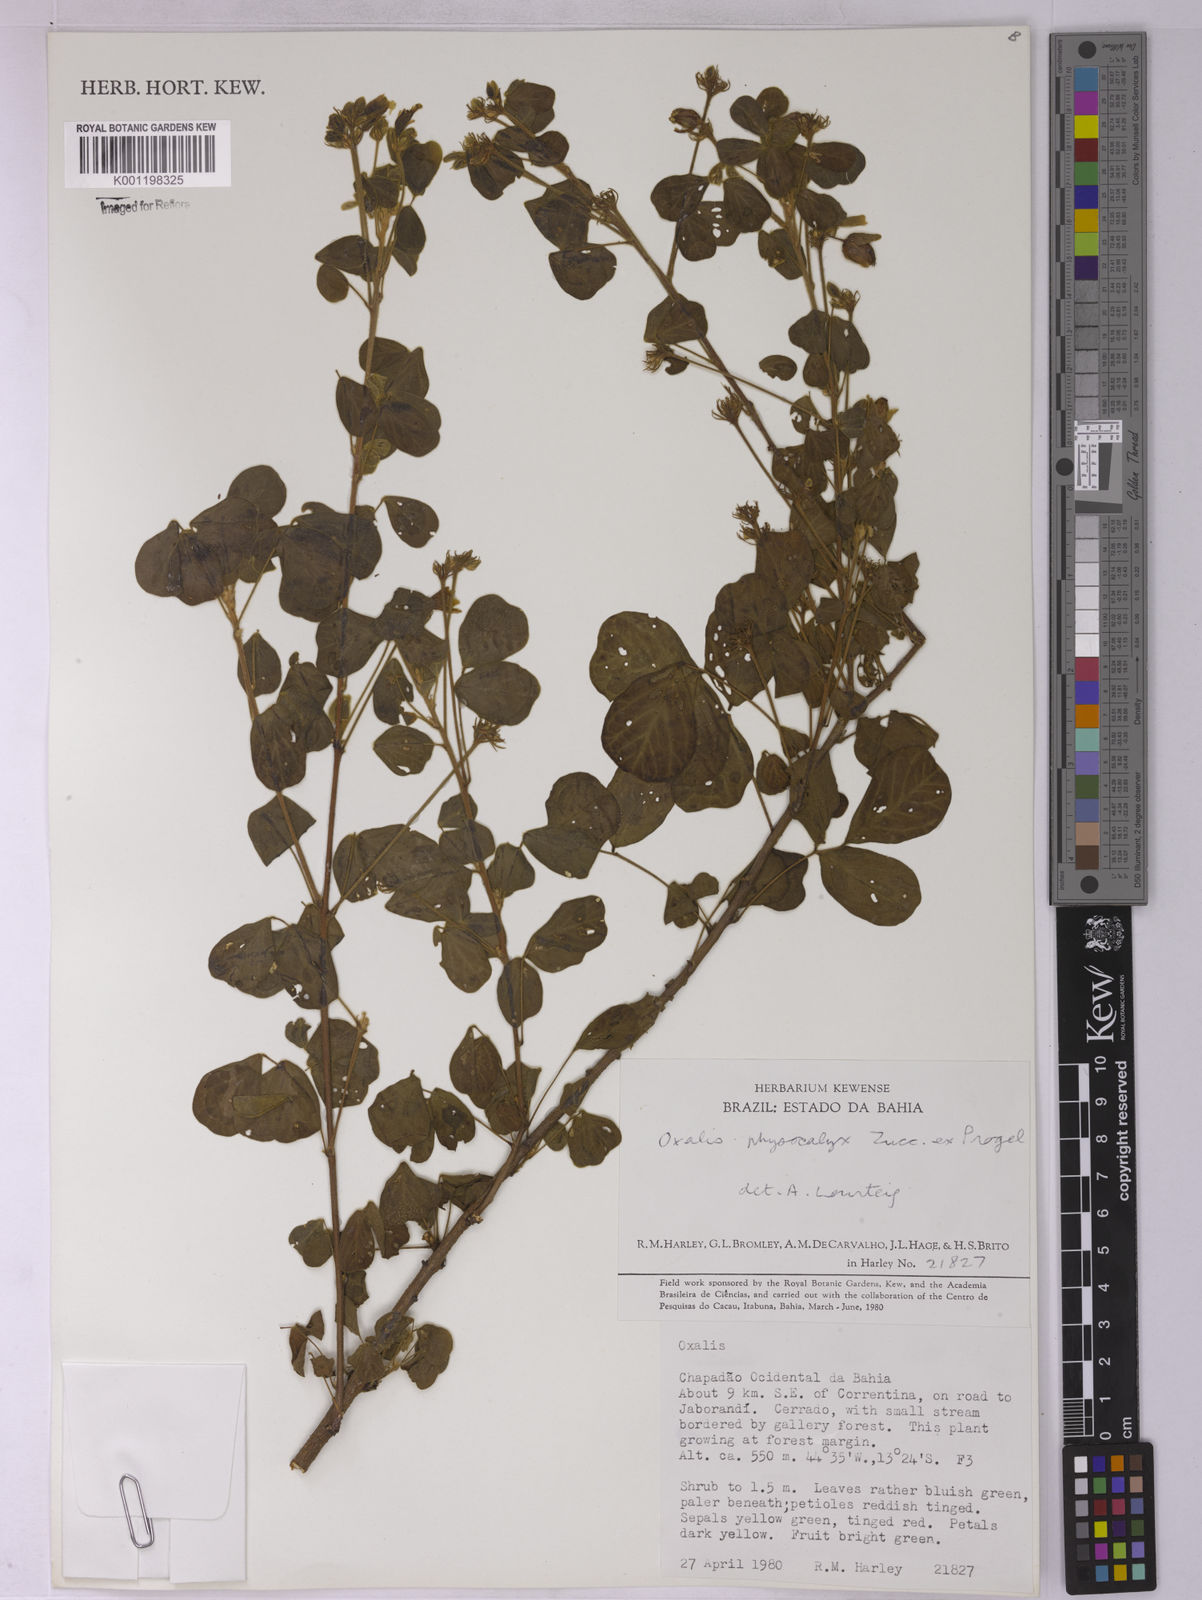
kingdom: Plantae
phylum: Tracheophyta
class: Magnoliopsida
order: Oxalidales
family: Oxalidaceae
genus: Oxalis
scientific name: Oxalis physocalyx
